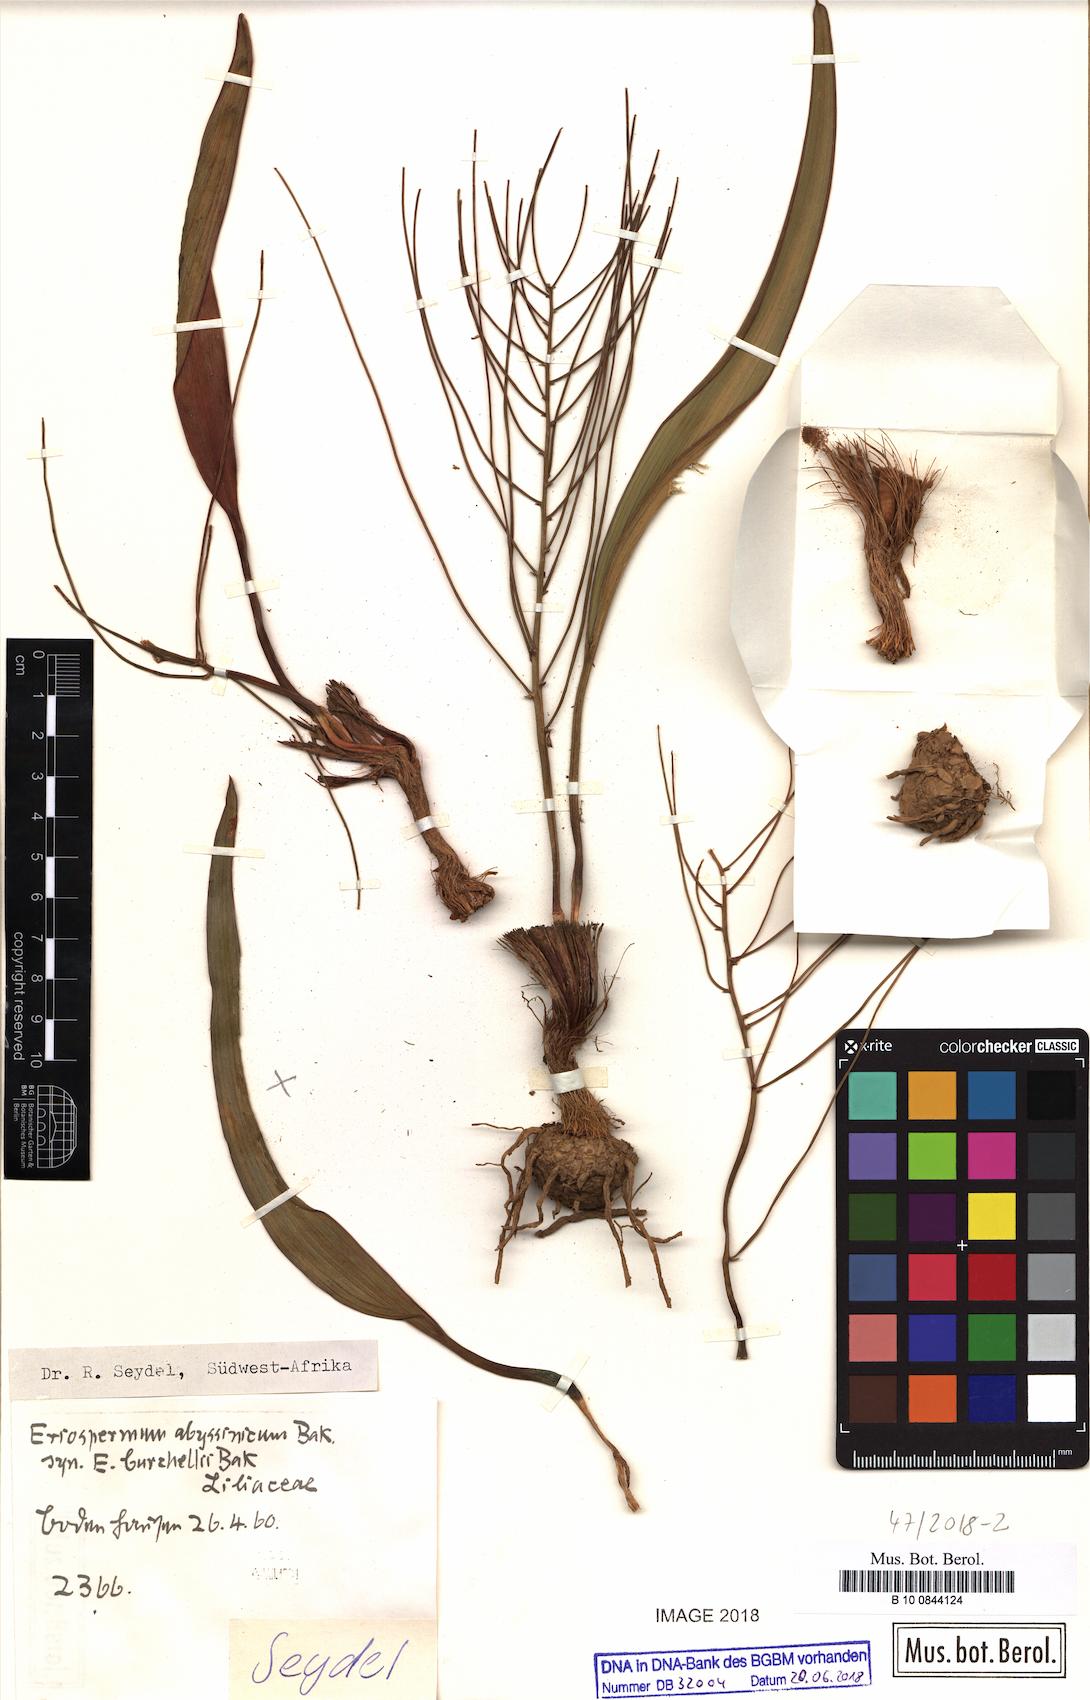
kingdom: Plantae
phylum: Tracheophyta
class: Liliopsida
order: Asparagales
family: Asparagaceae
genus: Eriospermum
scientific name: Eriospermum abyssinicum
